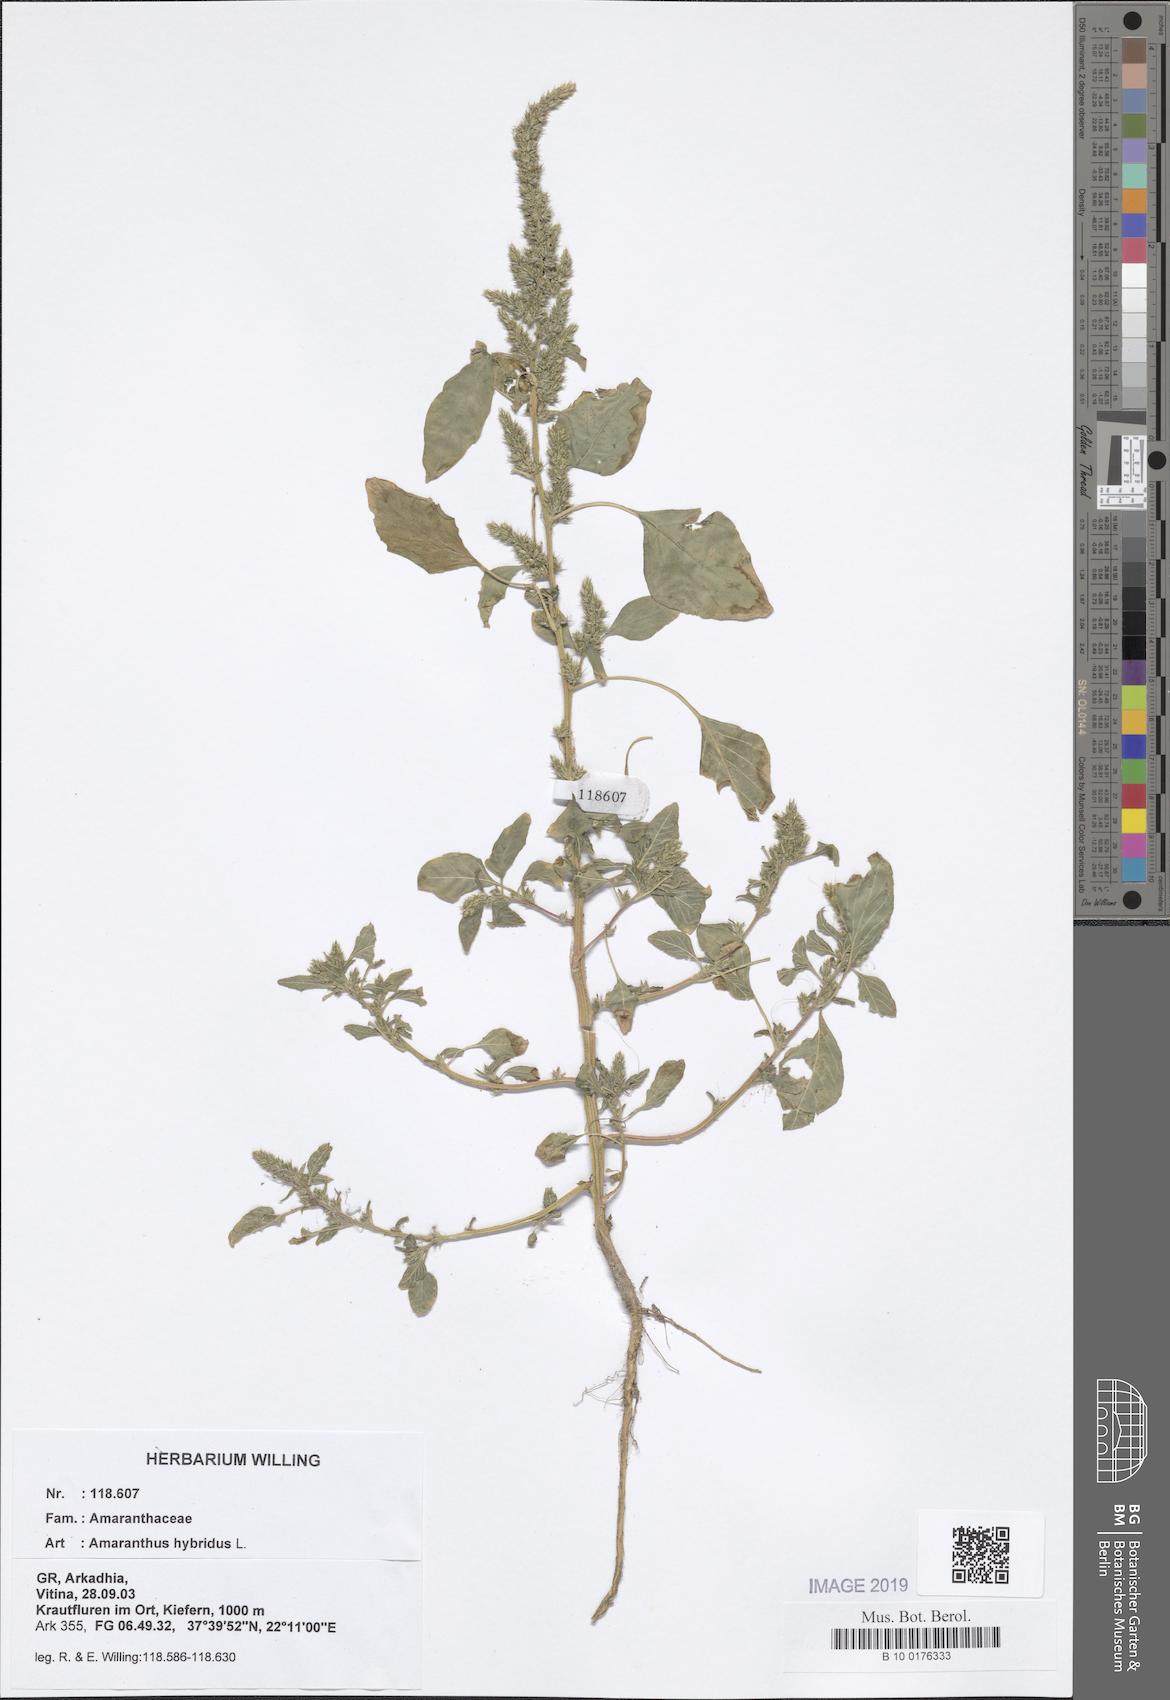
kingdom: Plantae
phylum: Tracheophyta
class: Magnoliopsida
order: Caryophyllales
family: Amaranthaceae
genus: Amaranthus
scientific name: Amaranthus hybridus
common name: Green amaranth
